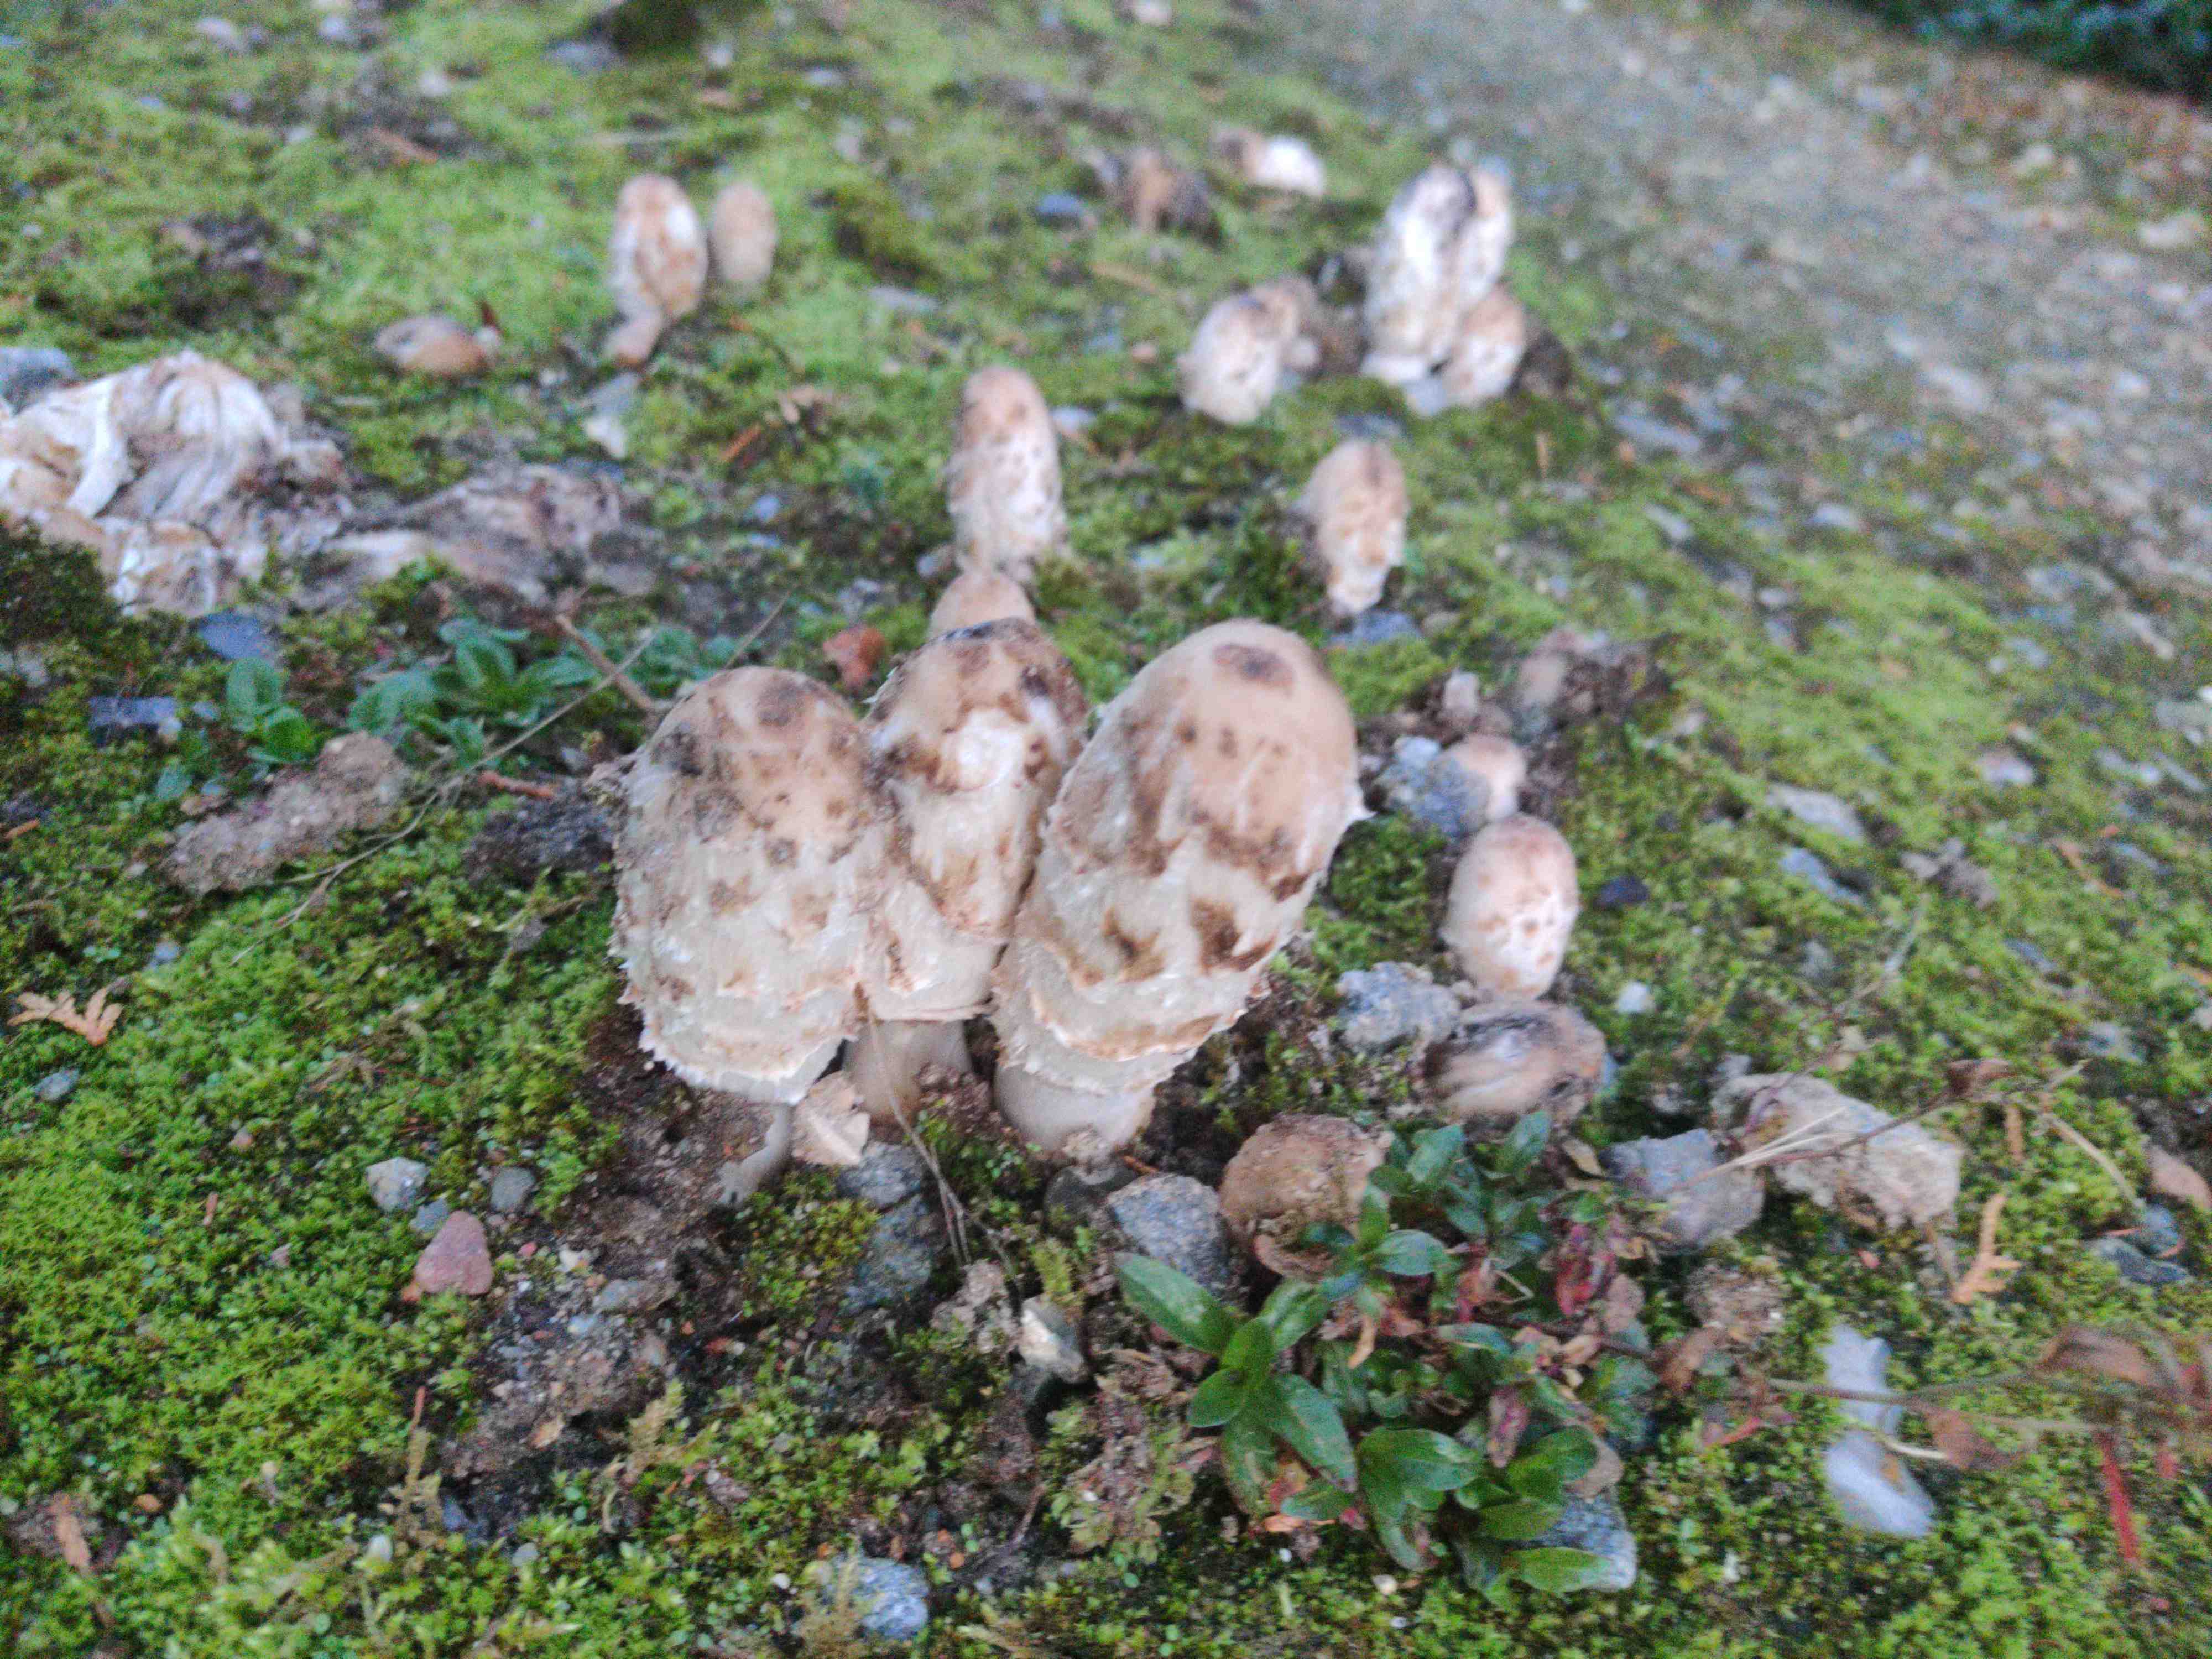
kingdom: Fungi
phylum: Basidiomycota
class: Agaricomycetes
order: Agaricales
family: Agaricaceae
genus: Coprinus
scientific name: Coprinus comatus
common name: stor parykhat
